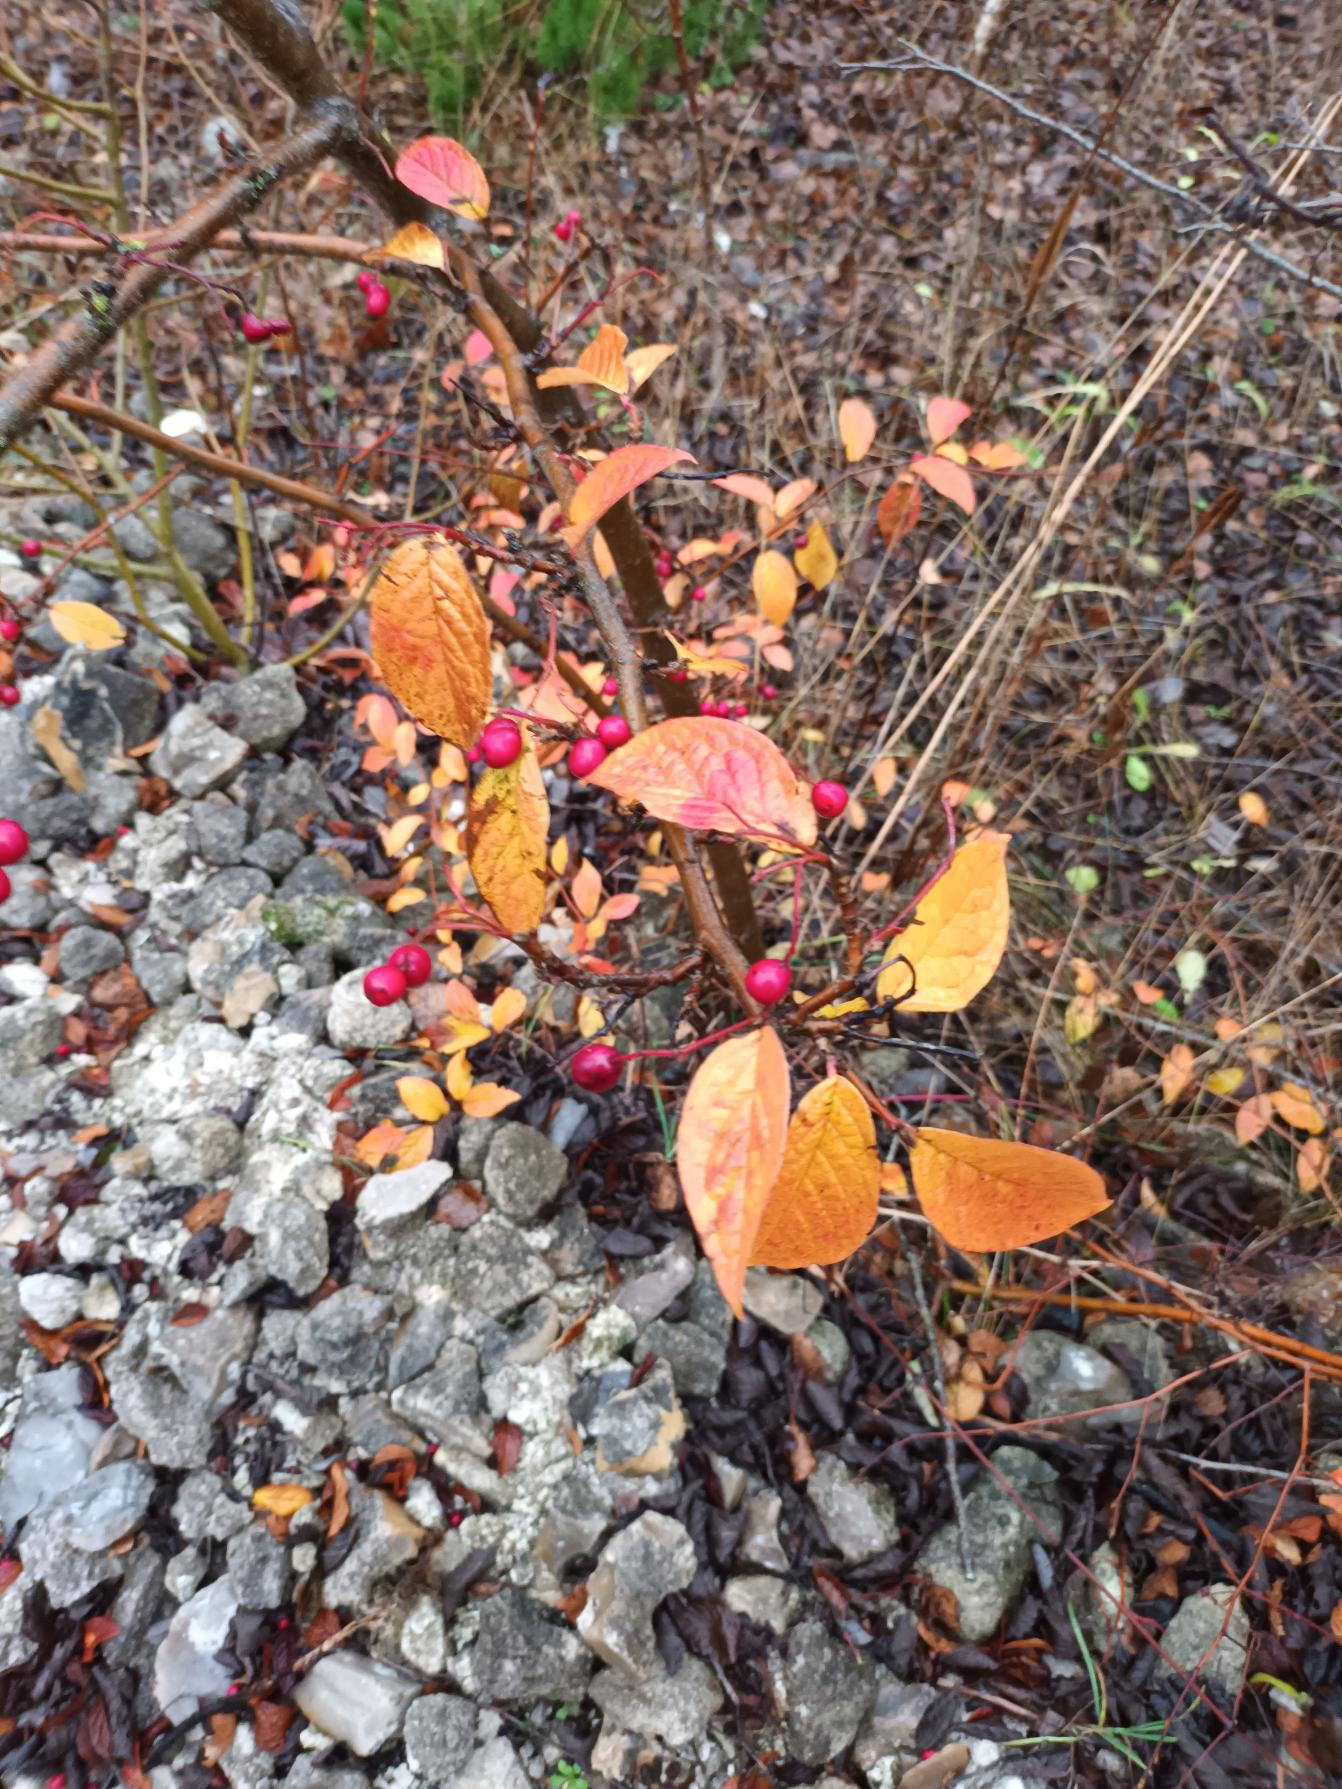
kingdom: Plantae
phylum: Tracheophyta
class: Magnoliopsida
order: Rosales
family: Rosaceae
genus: Cotoneaster
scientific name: Cotoneaster bullatus
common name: Buklet dværgmispel
